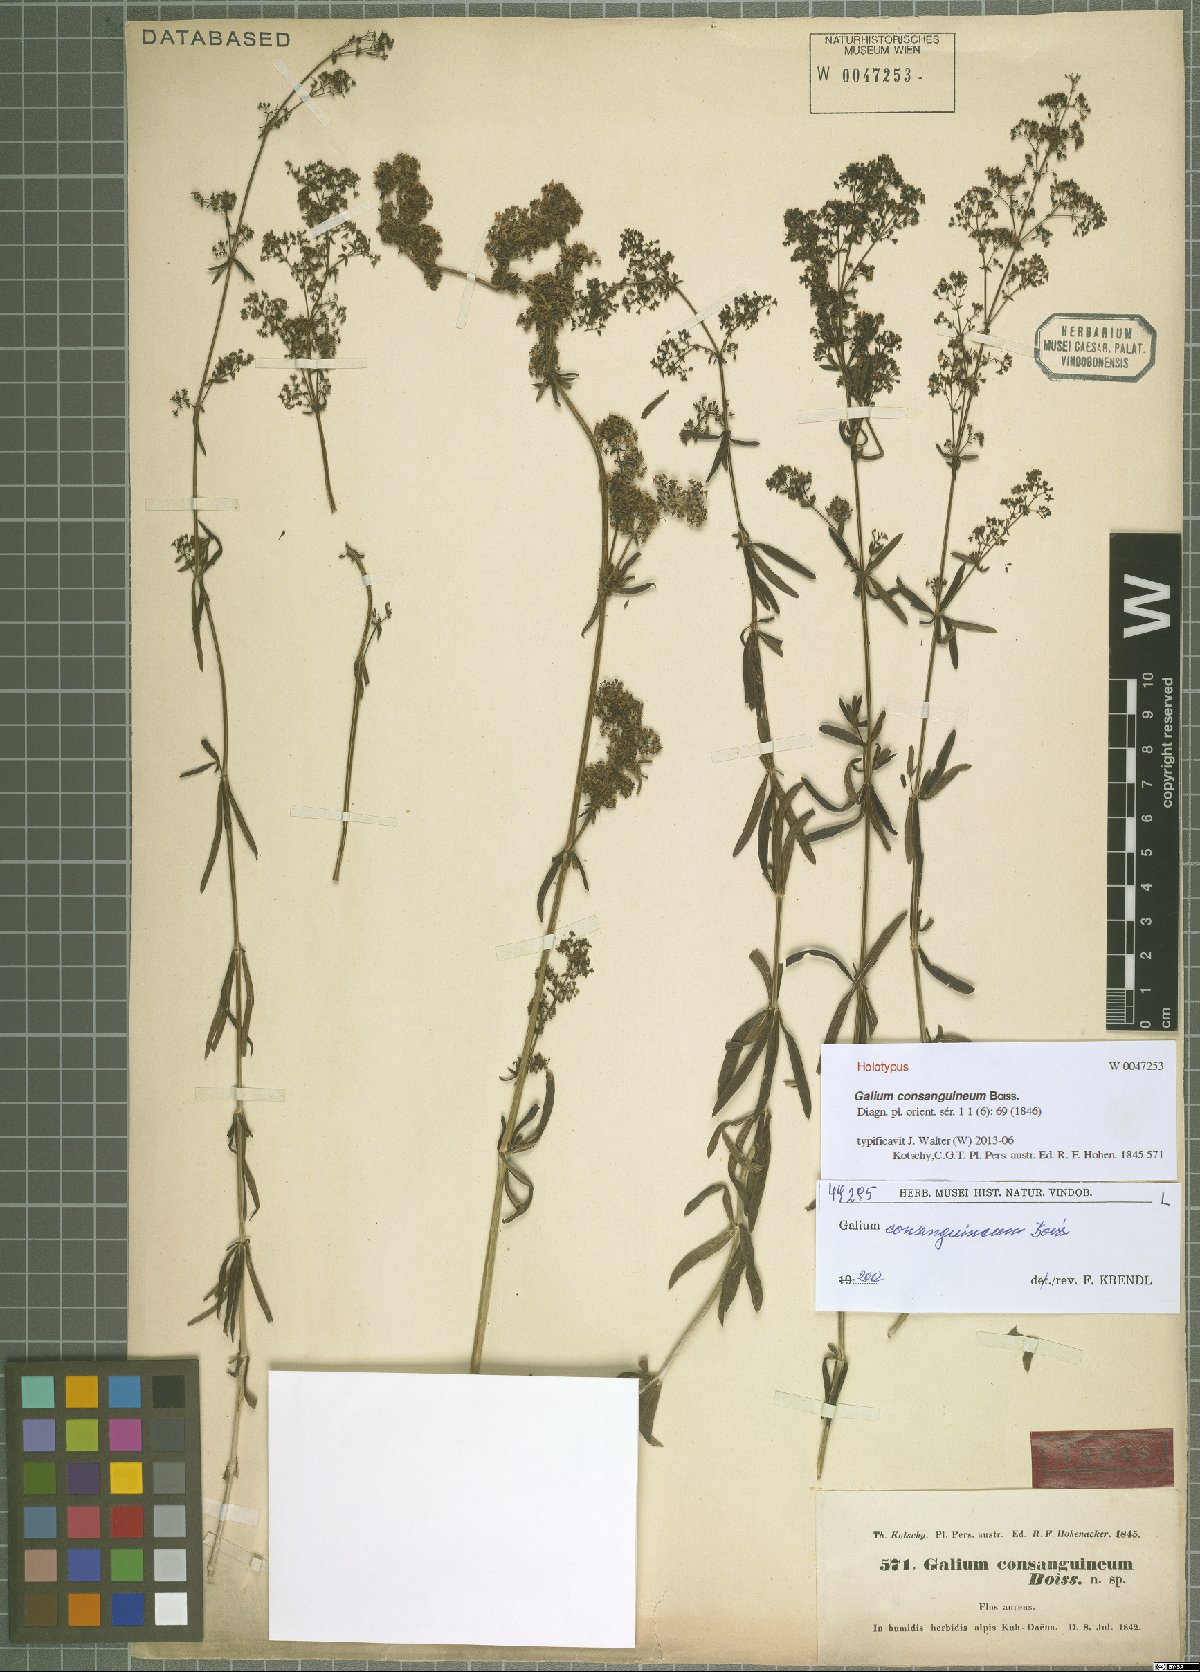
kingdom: Plantae
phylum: Tracheophyta
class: Magnoliopsida
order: Gentianales
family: Rubiaceae
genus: Galium
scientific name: Galium consanguineum
